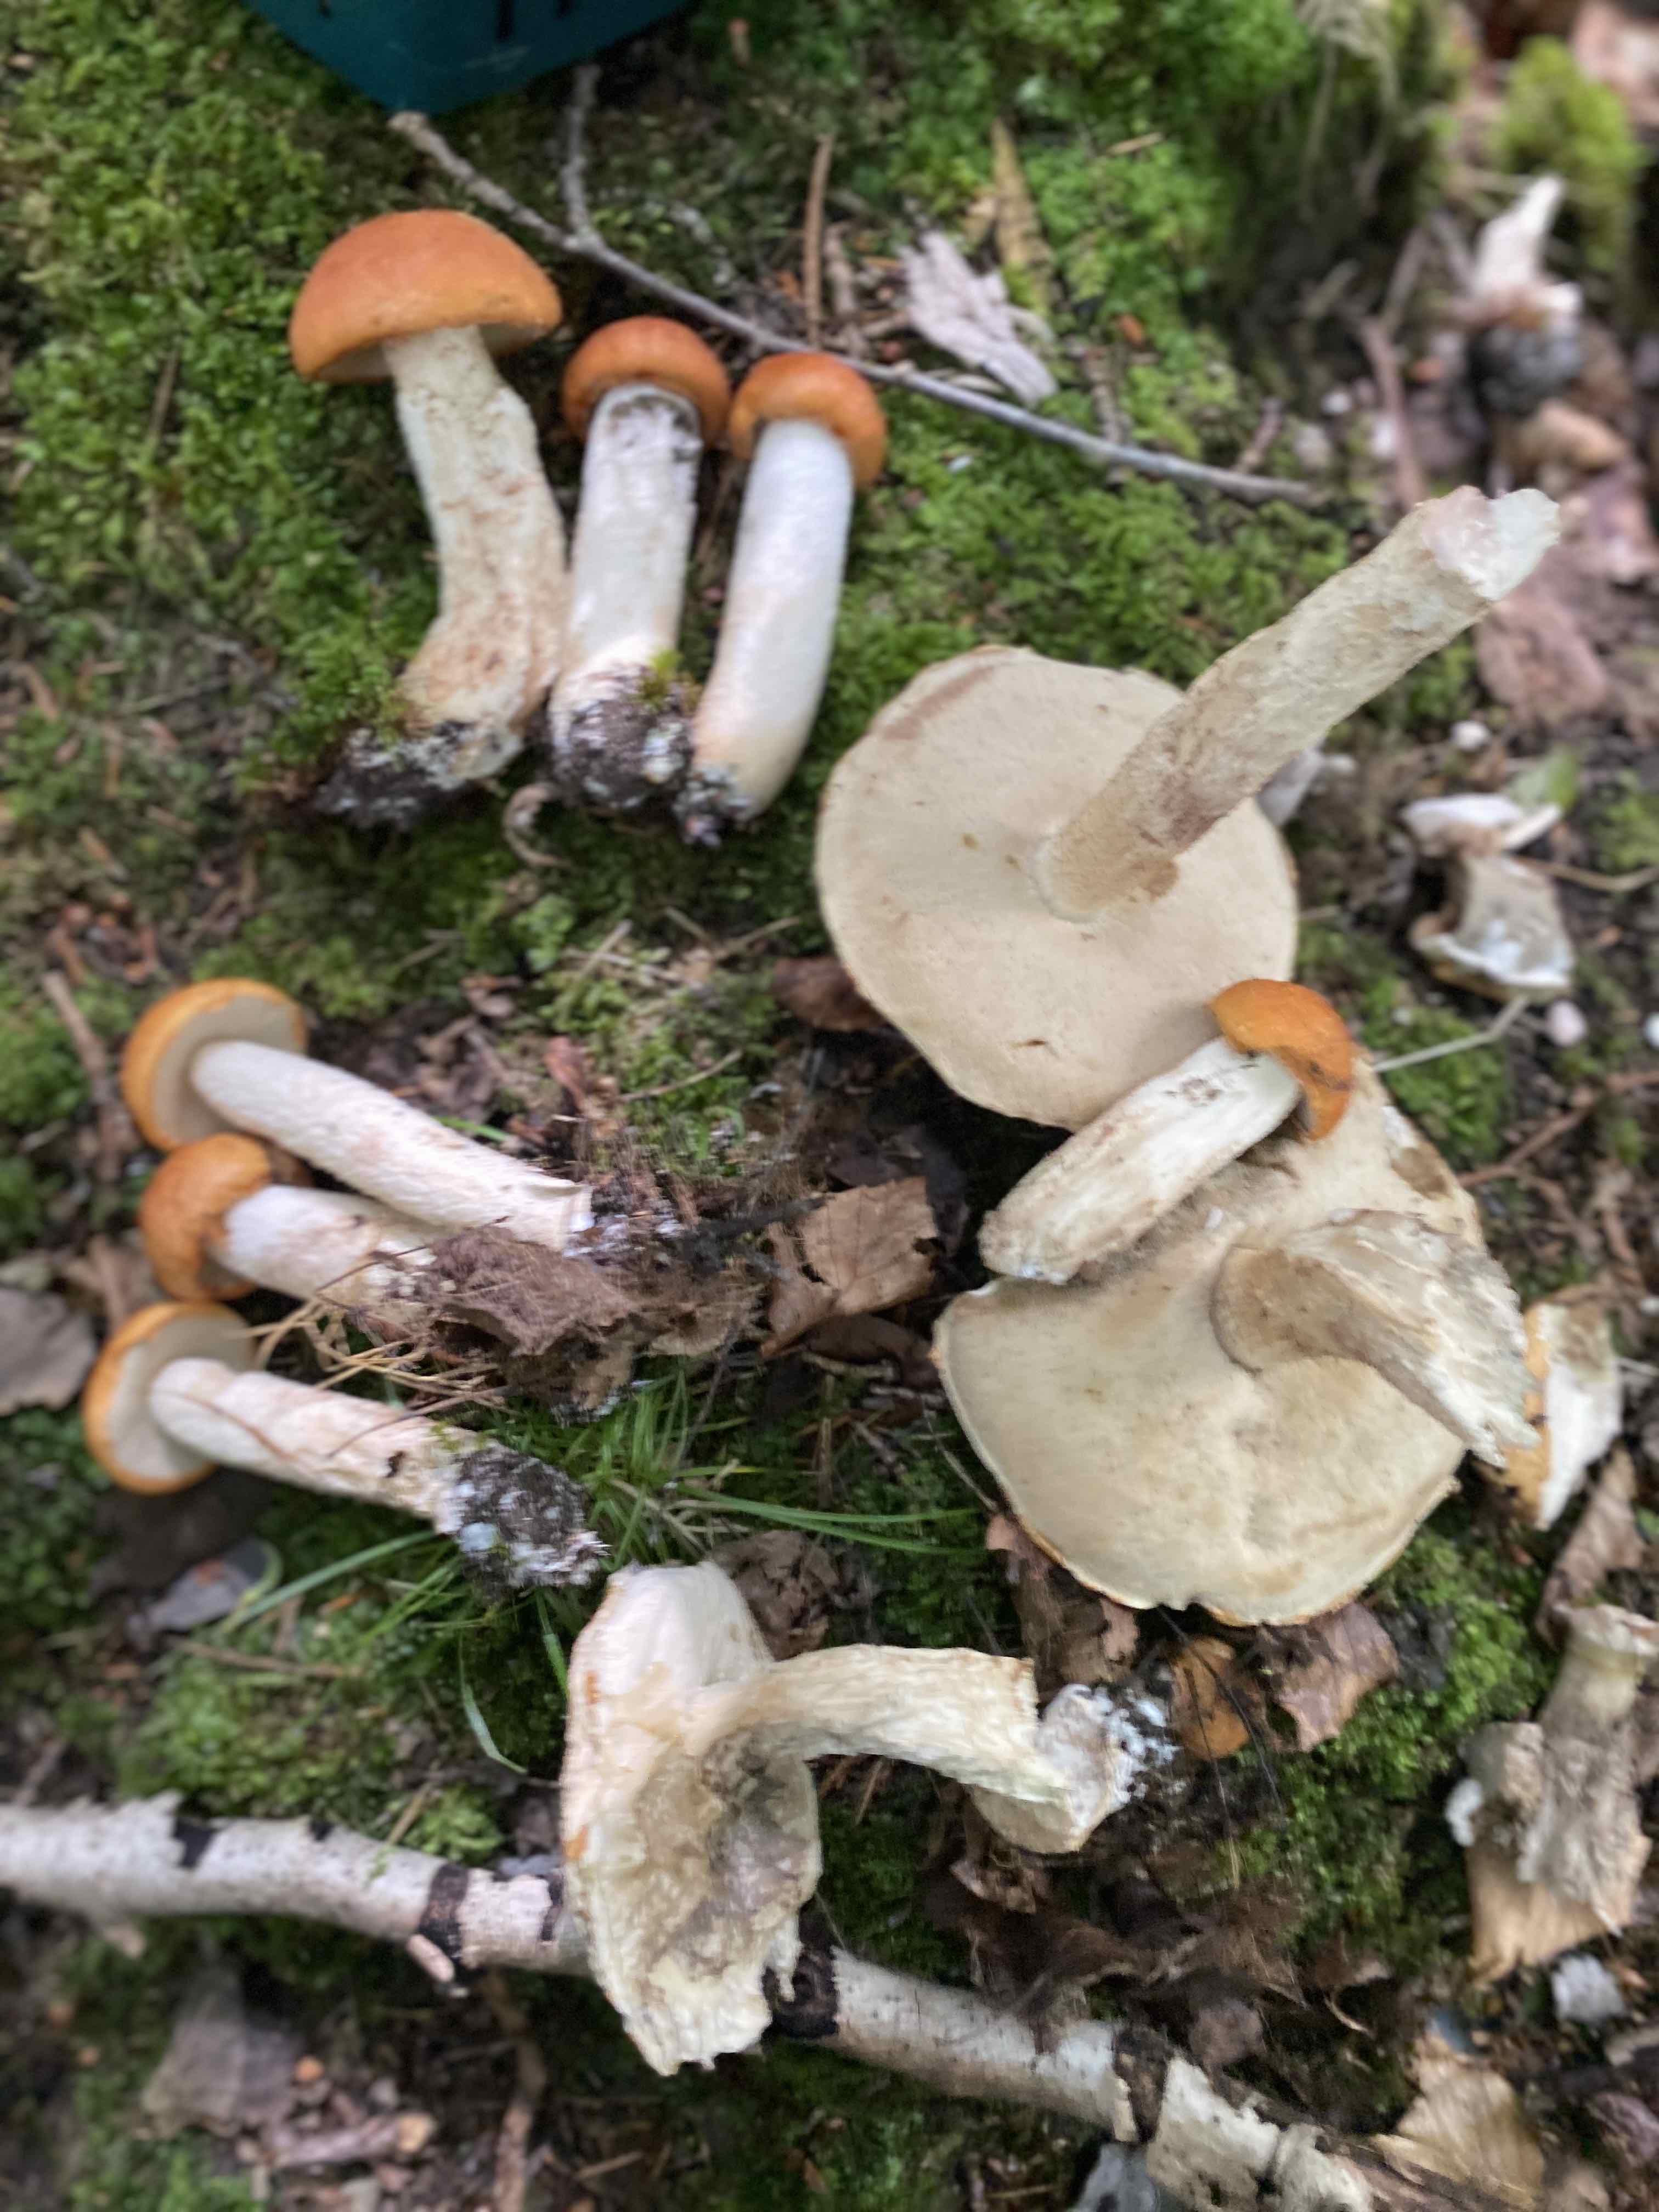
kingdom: Fungi
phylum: Basidiomycota
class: Agaricomycetes
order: Boletales
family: Boletaceae
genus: Leccinum
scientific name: Leccinum albostipitatum
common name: aspe-skælrørhat
